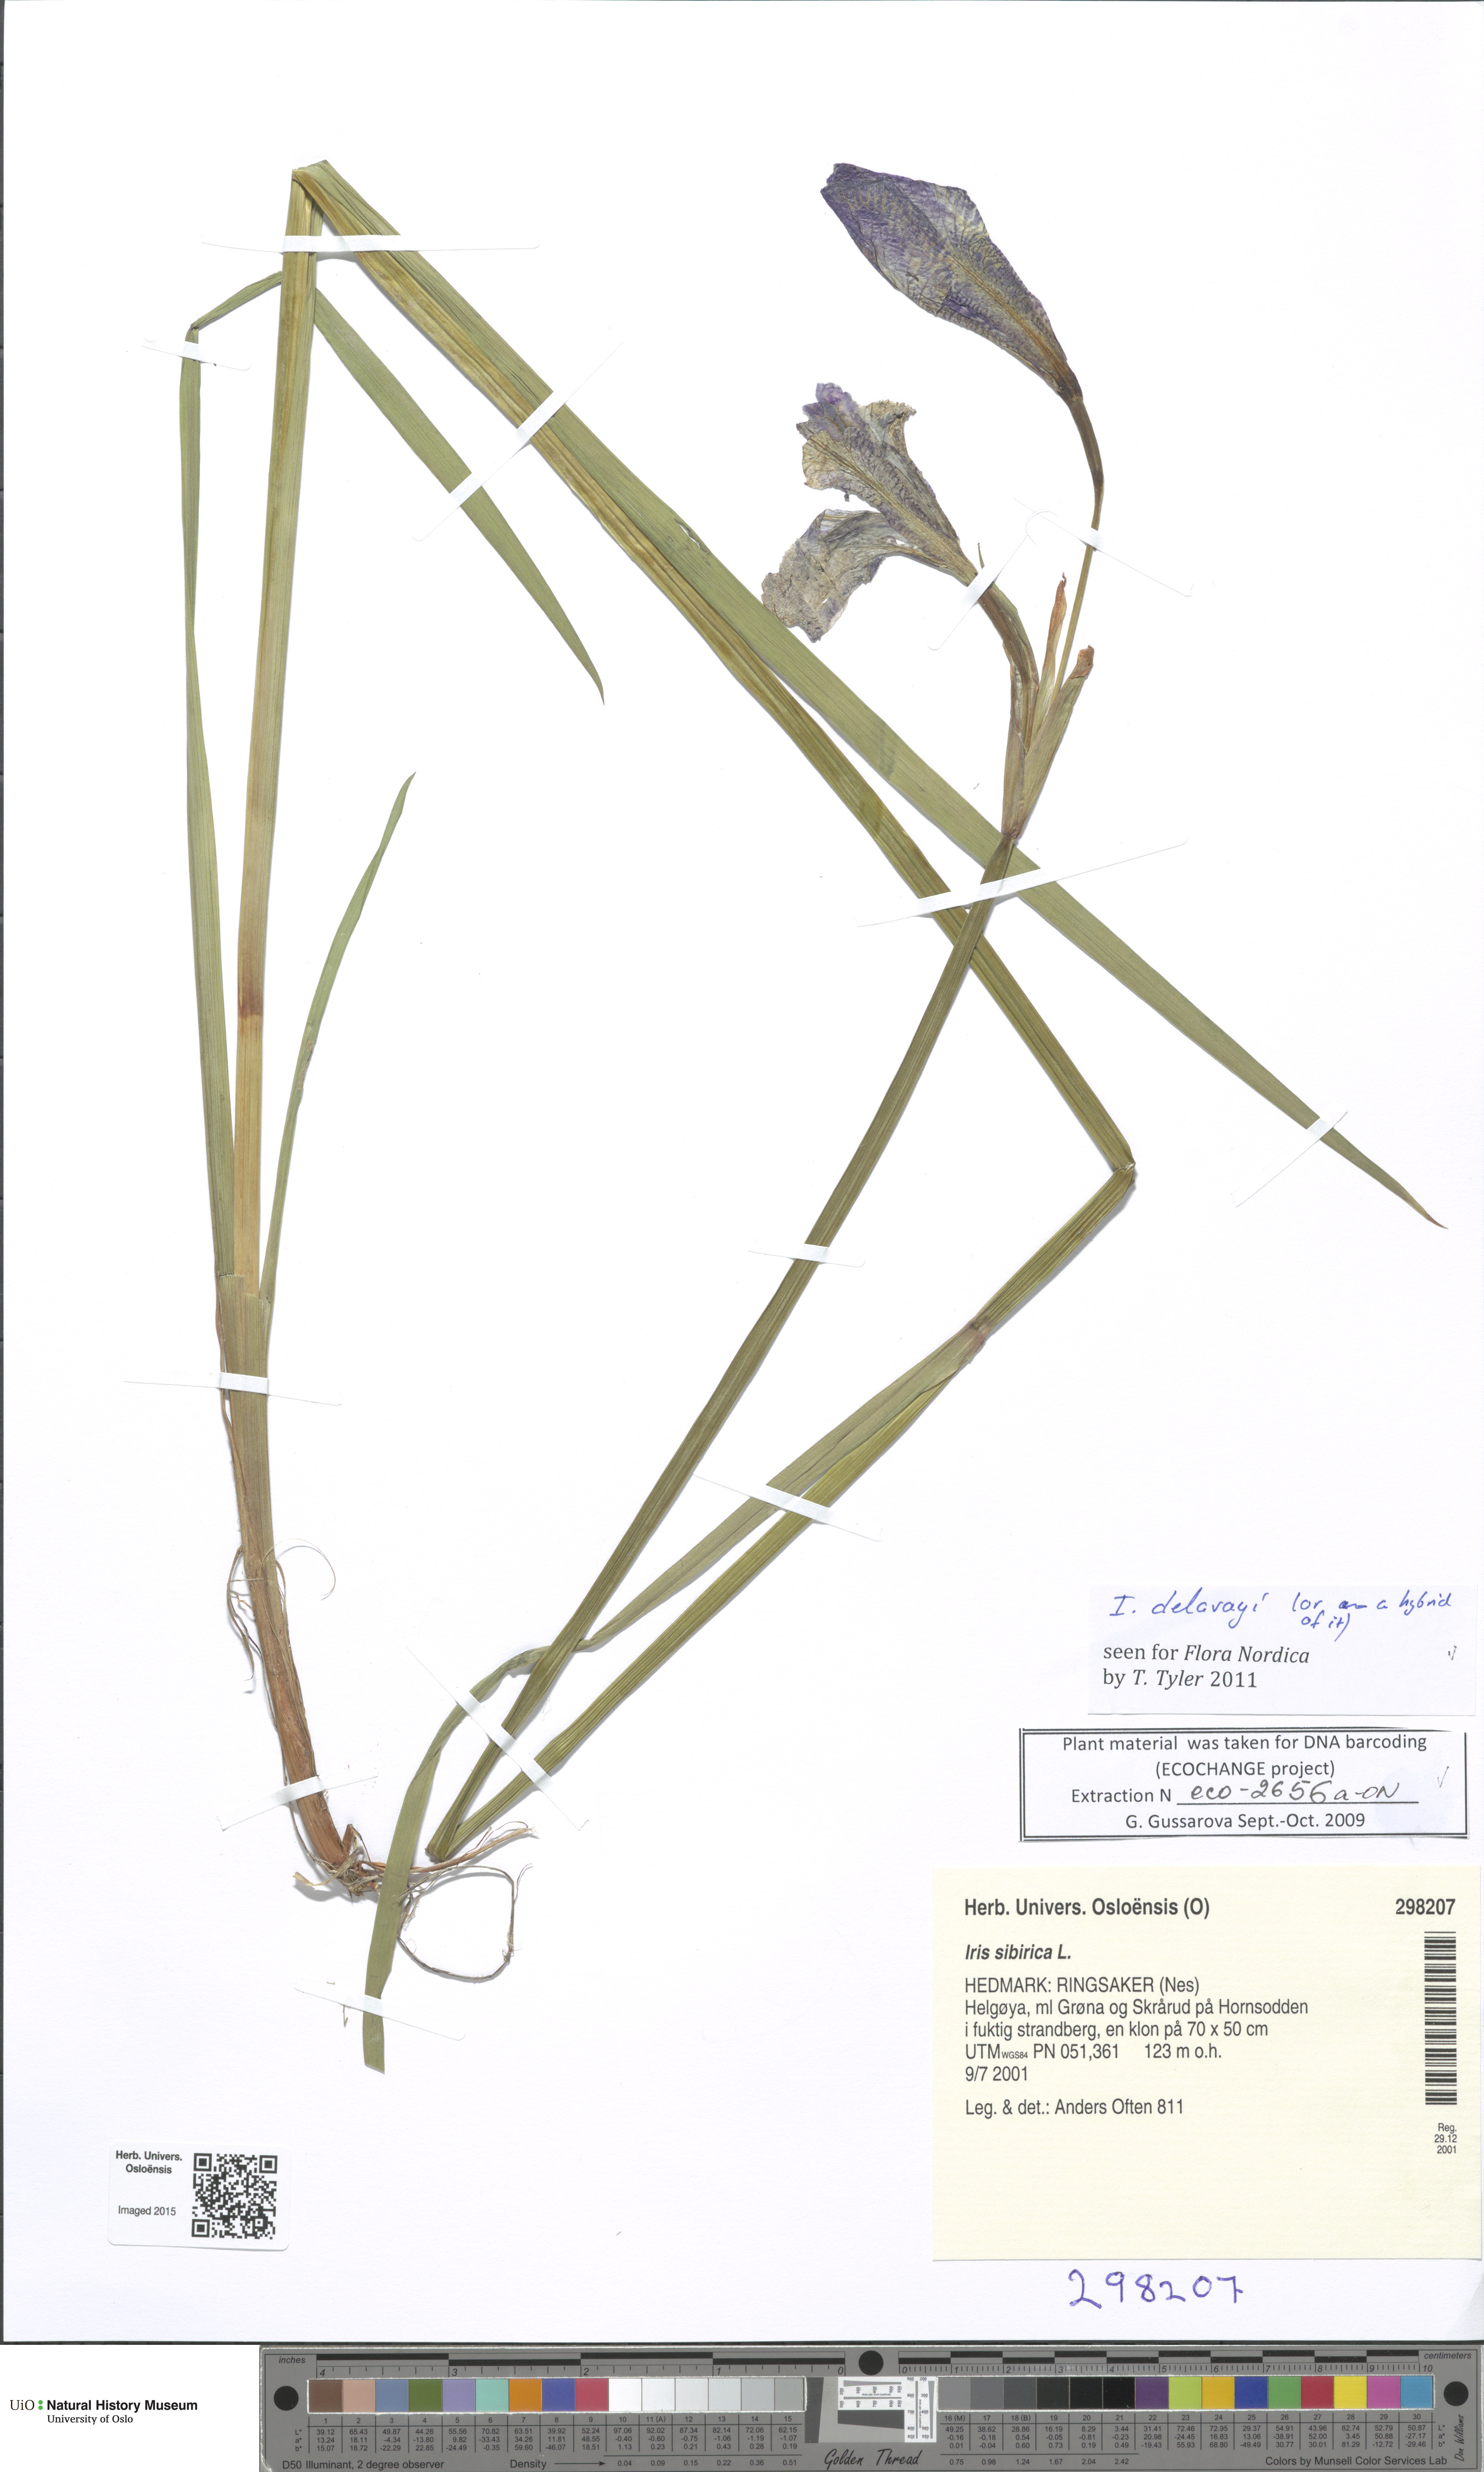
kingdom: Plantae
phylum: Tracheophyta
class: Liliopsida
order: Asparagales
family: Iridaceae
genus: Iris
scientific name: Iris delavayi
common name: Long-scape iris
